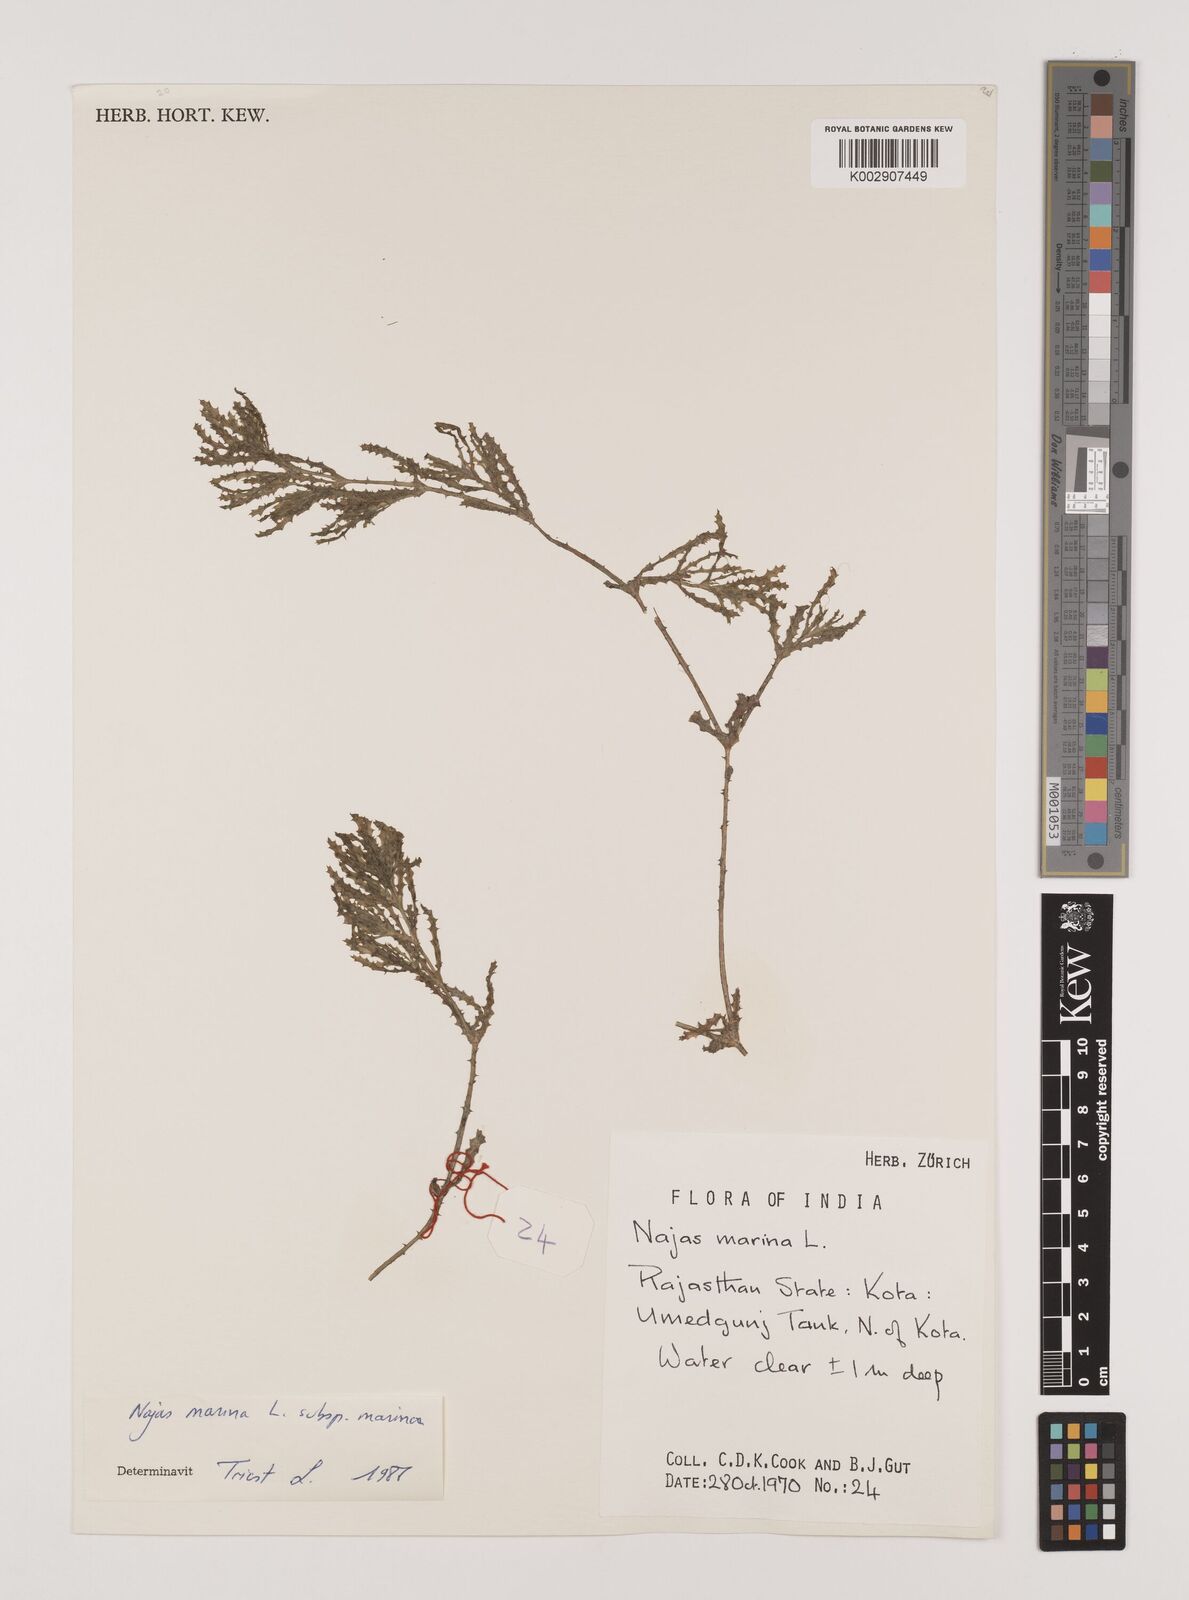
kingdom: Plantae
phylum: Tracheophyta
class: Liliopsida
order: Alismatales
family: Hydrocharitaceae
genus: Najas
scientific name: Najas marina
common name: Holly-leaved naiad
